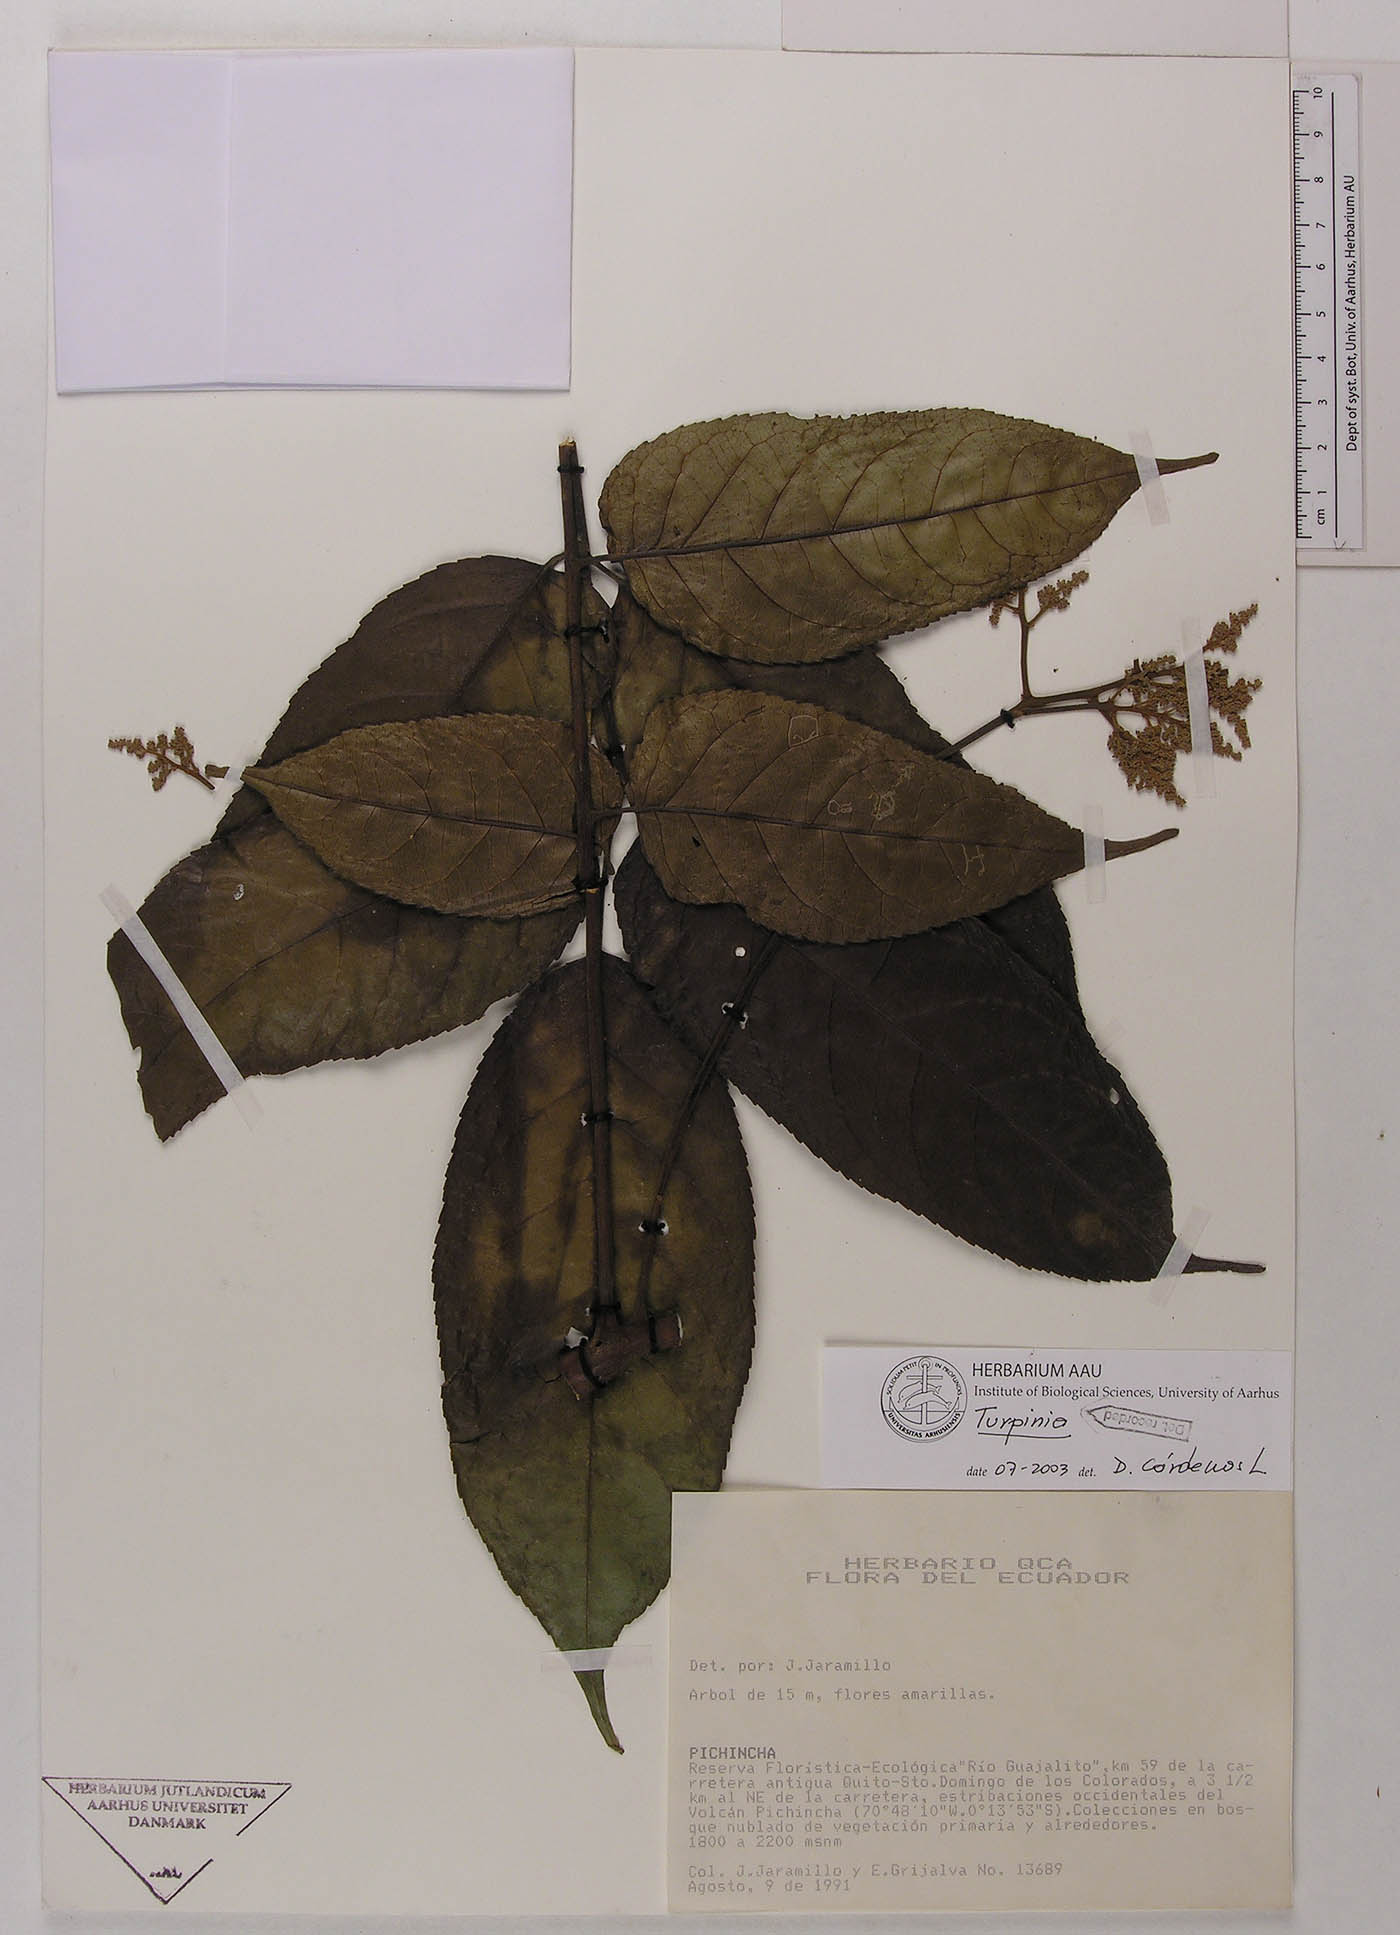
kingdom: Plantae
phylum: Tracheophyta
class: Magnoliopsida
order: Huerteales
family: Tapisciaceae
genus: Huertea
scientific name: Huertea glandulosa
